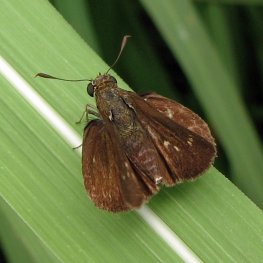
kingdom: Animalia
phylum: Arthropoda
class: Insecta
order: Lepidoptera
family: Hesperiidae
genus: Euphyes
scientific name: Euphyes vestris
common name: Dun Skipper
